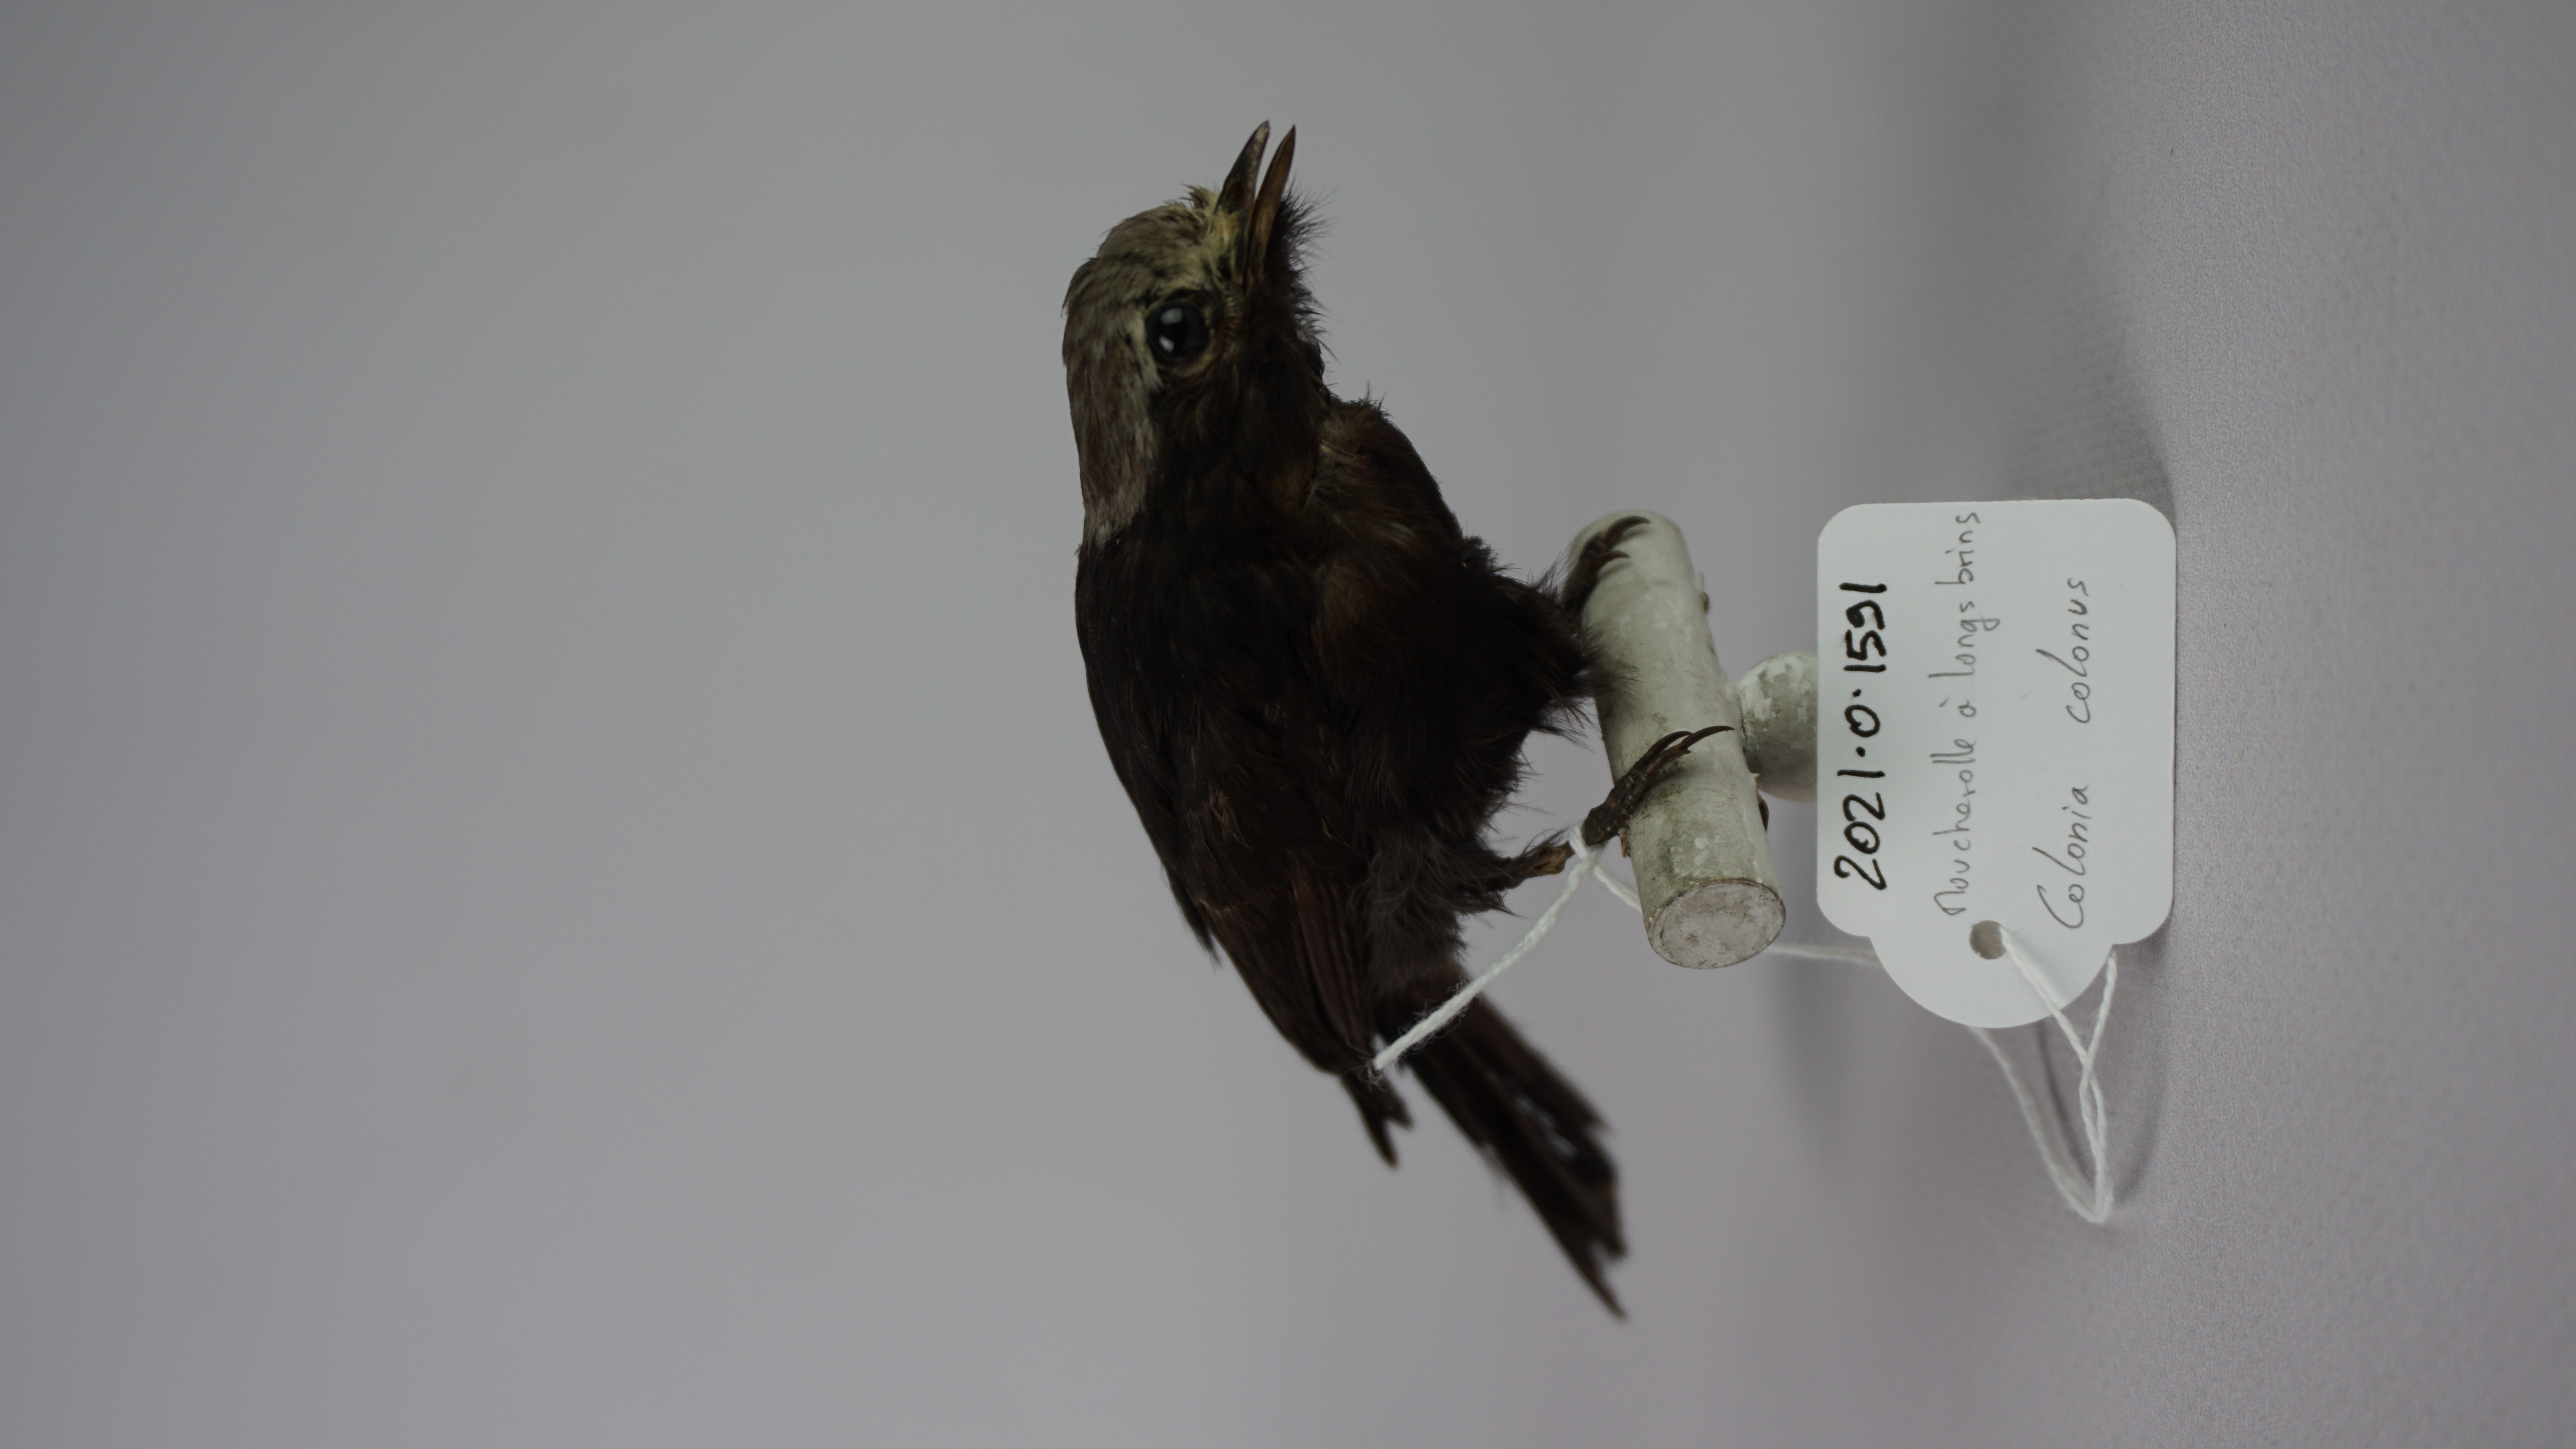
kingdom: Animalia
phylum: Chordata
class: Aves
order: Passeriformes
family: Tyrannidae
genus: Colonia
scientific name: Colonia colonus
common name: Long-tailed tyrant
